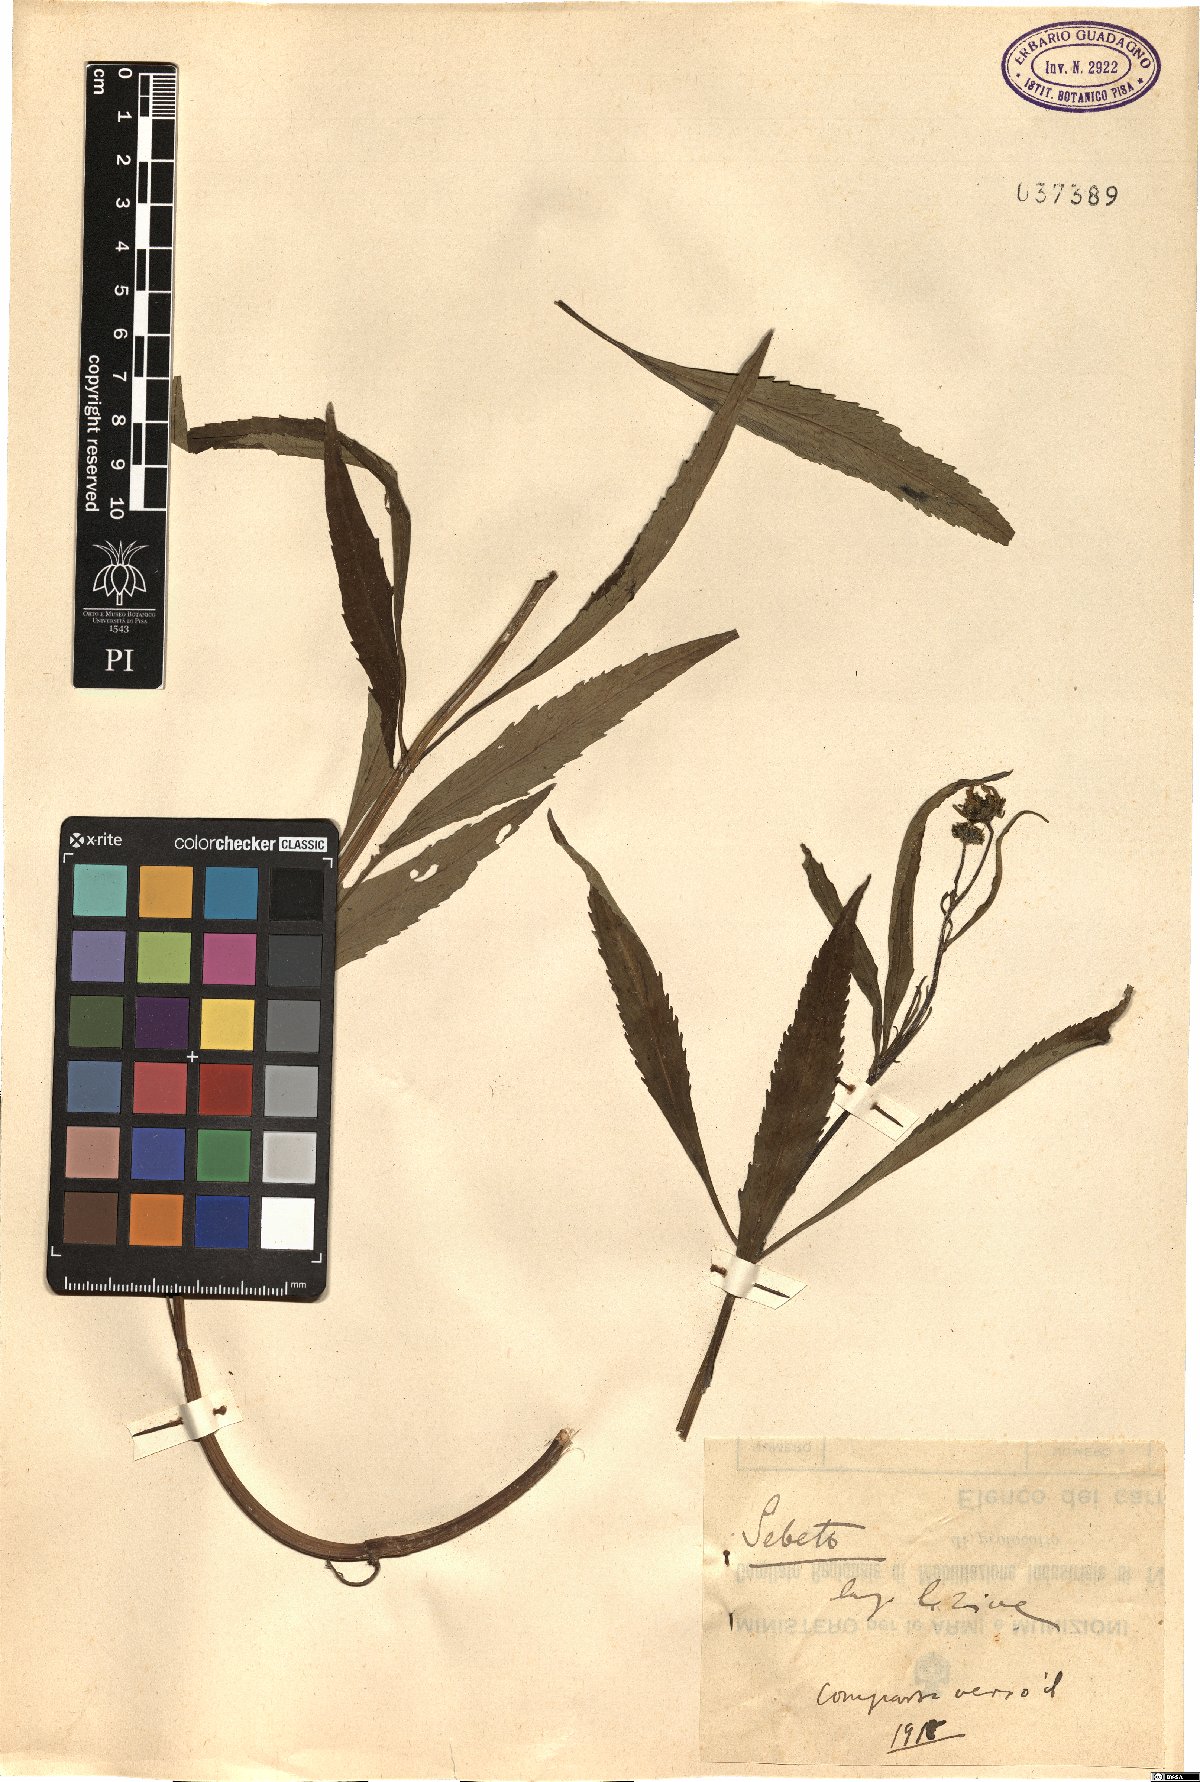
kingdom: Plantae
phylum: Tracheophyta
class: Magnoliopsida
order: Asterales
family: Asteraceae
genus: Bidens
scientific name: Bidens
